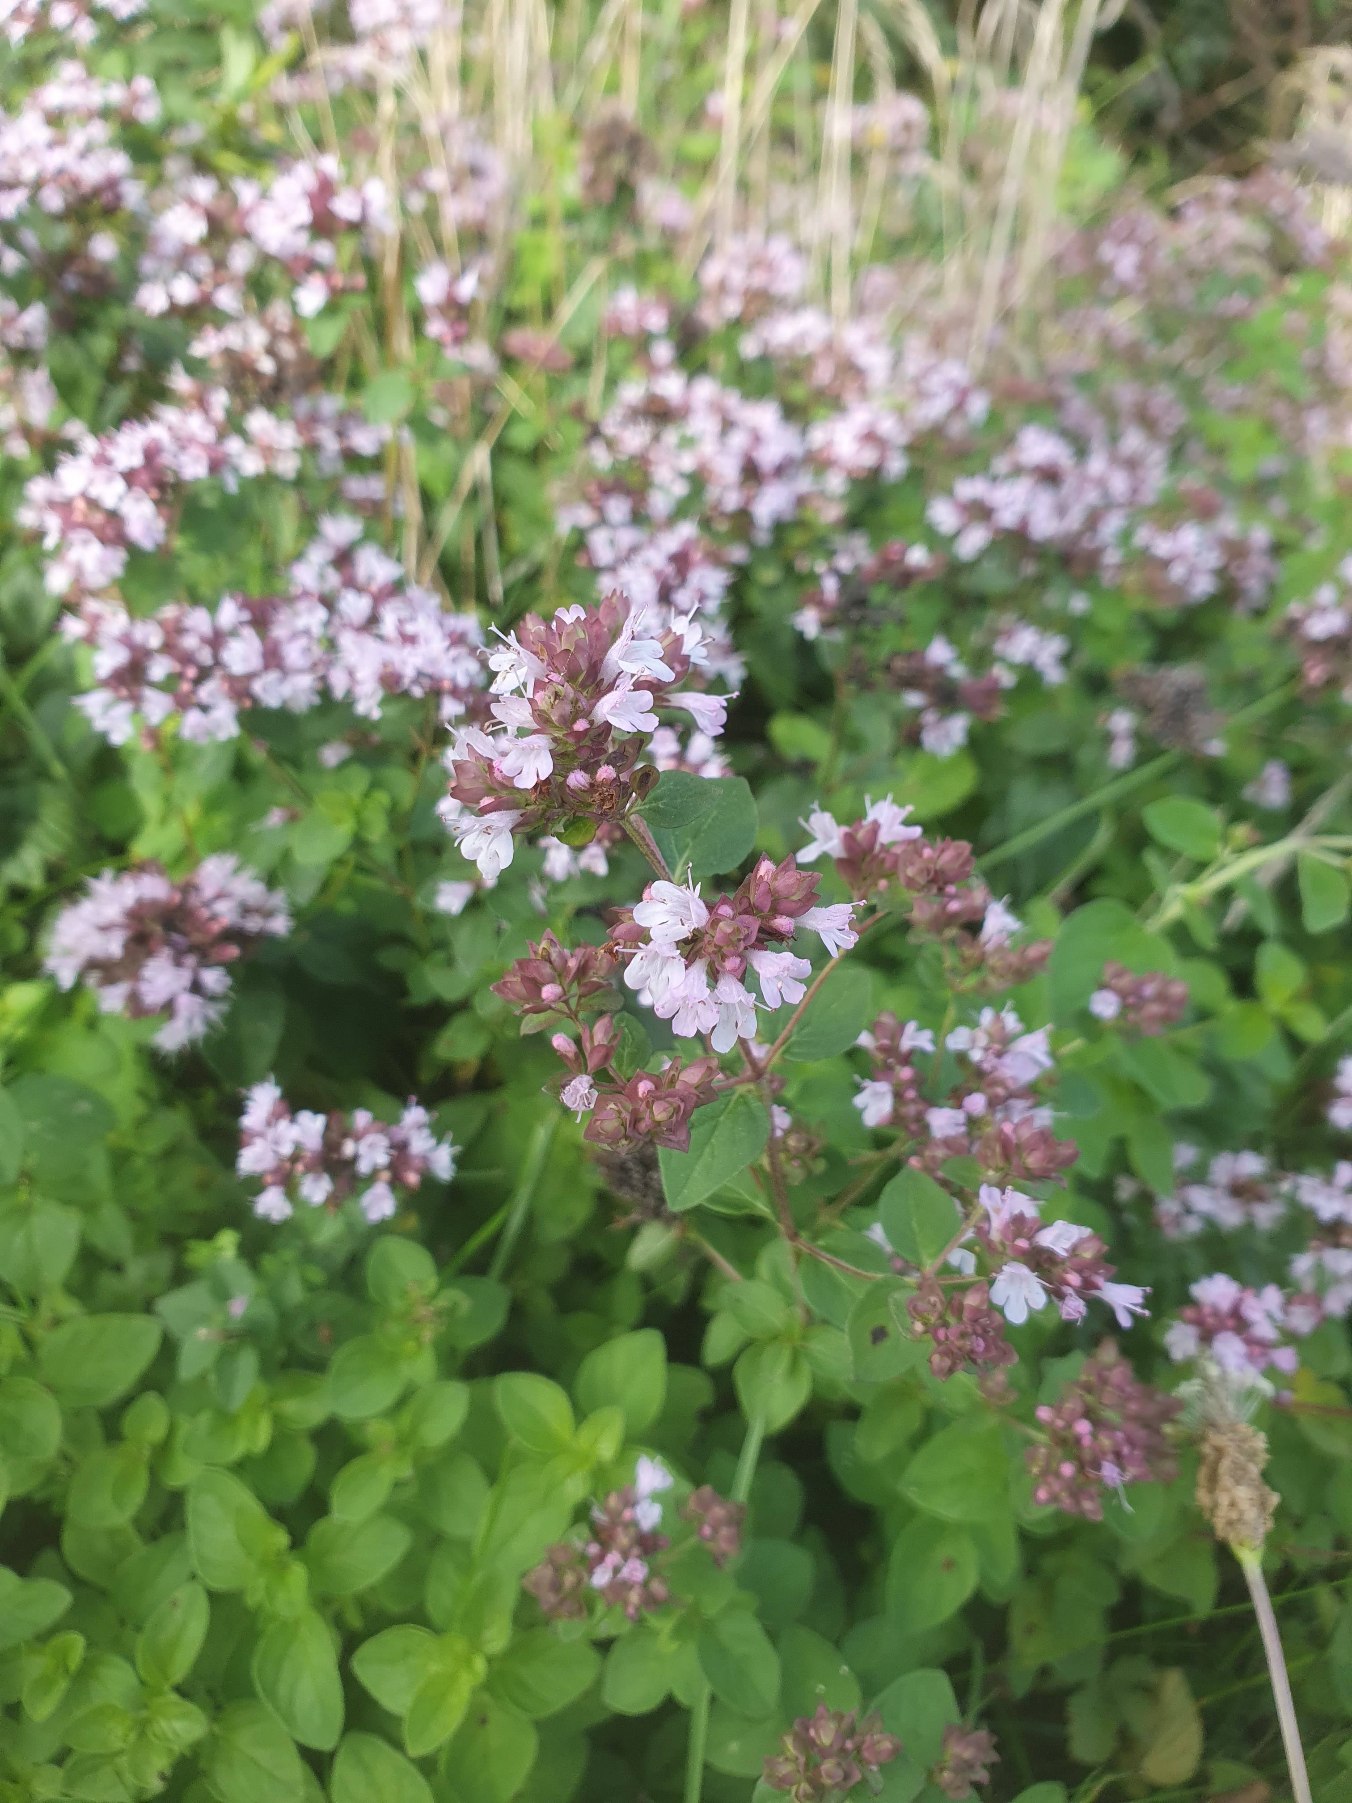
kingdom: Plantae
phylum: Tracheophyta
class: Magnoliopsida
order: Lamiales
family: Lamiaceae
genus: Origanum
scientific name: Origanum vulgare
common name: Merian
